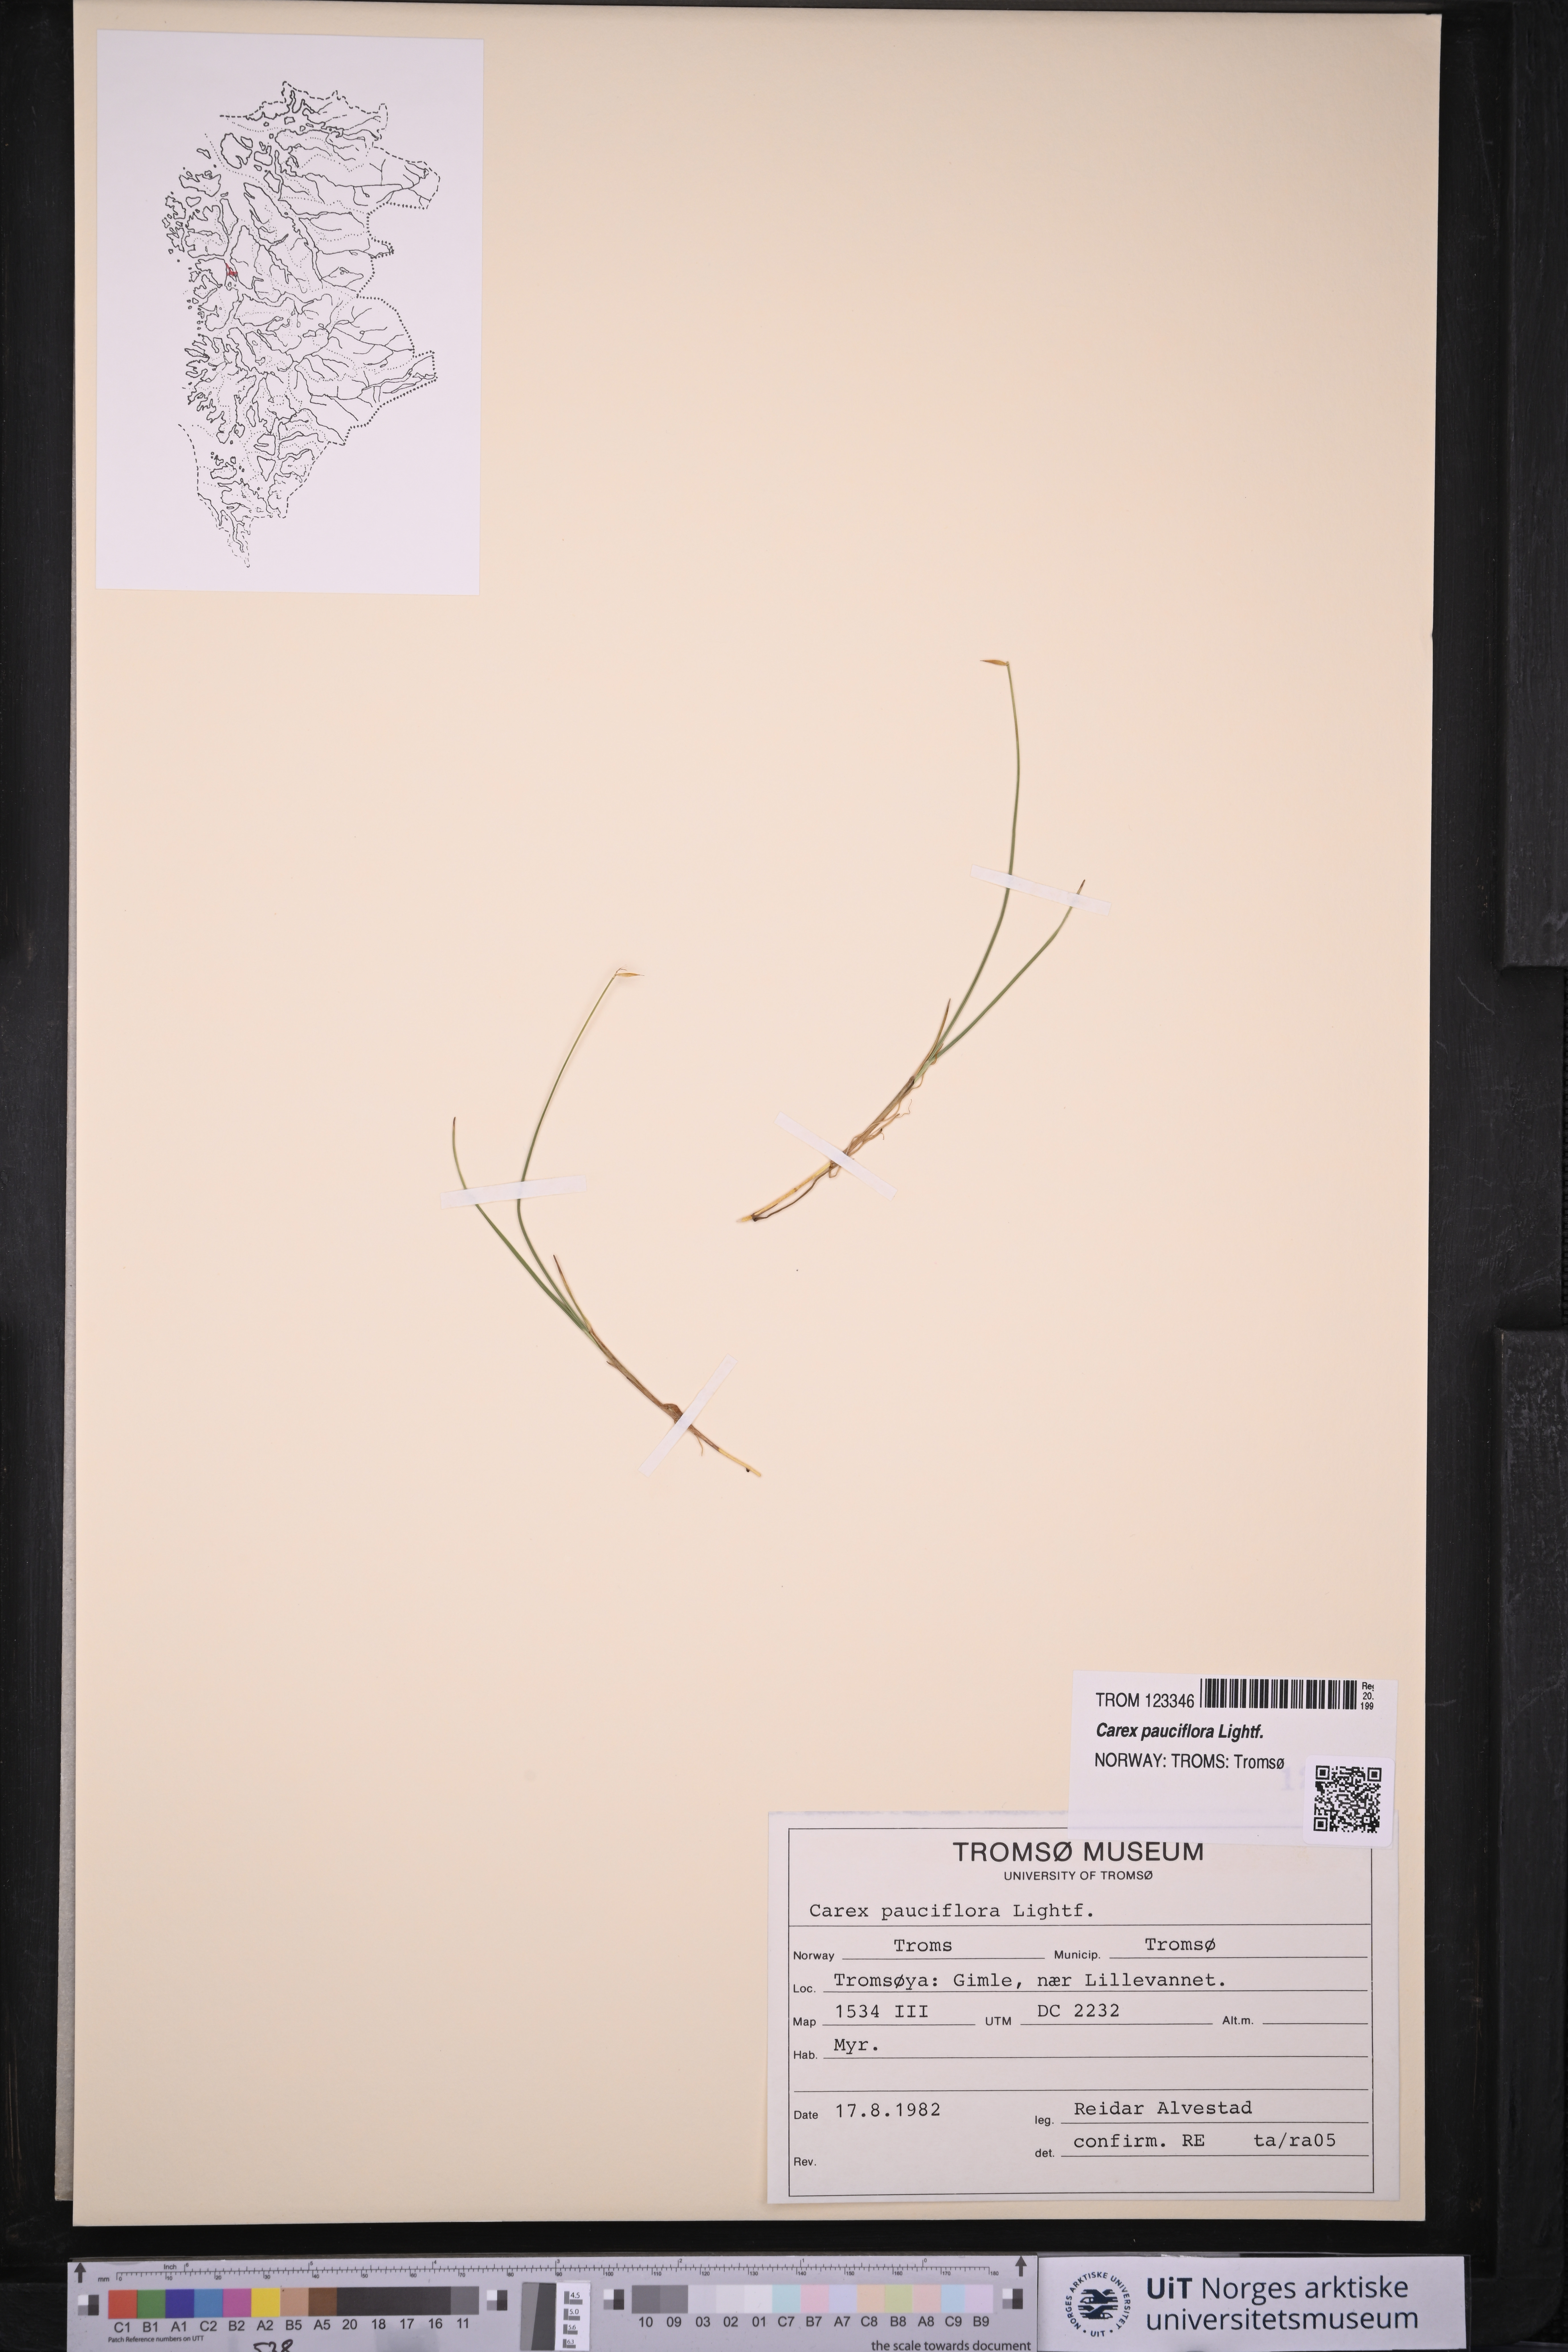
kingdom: Plantae
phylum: Tracheophyta
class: Liliopsida
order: Poales
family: Cyperaceae
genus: Carex
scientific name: Carex pauciflora
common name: Few-flowered sedge
